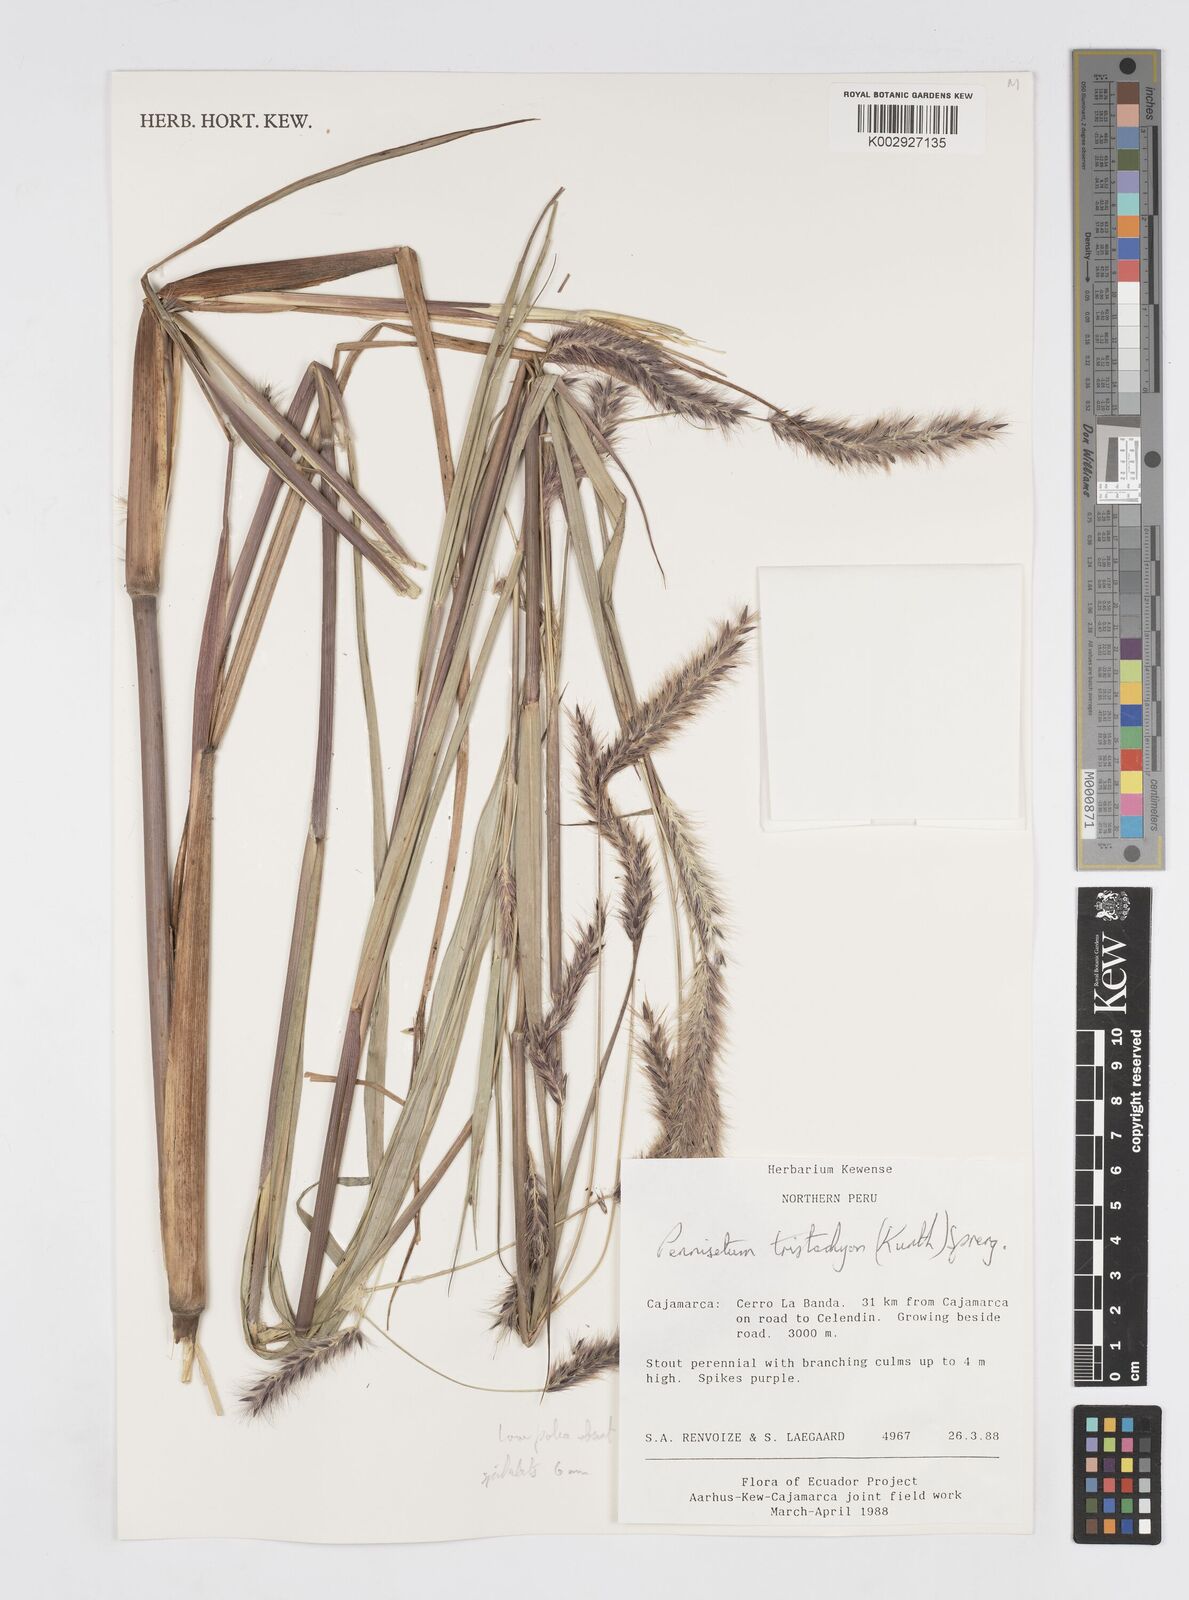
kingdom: Plantae
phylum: Tracheophyta
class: Liliopsida
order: Poales
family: Poaceae
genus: Cenchrus
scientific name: Cenchrus tristachyus
